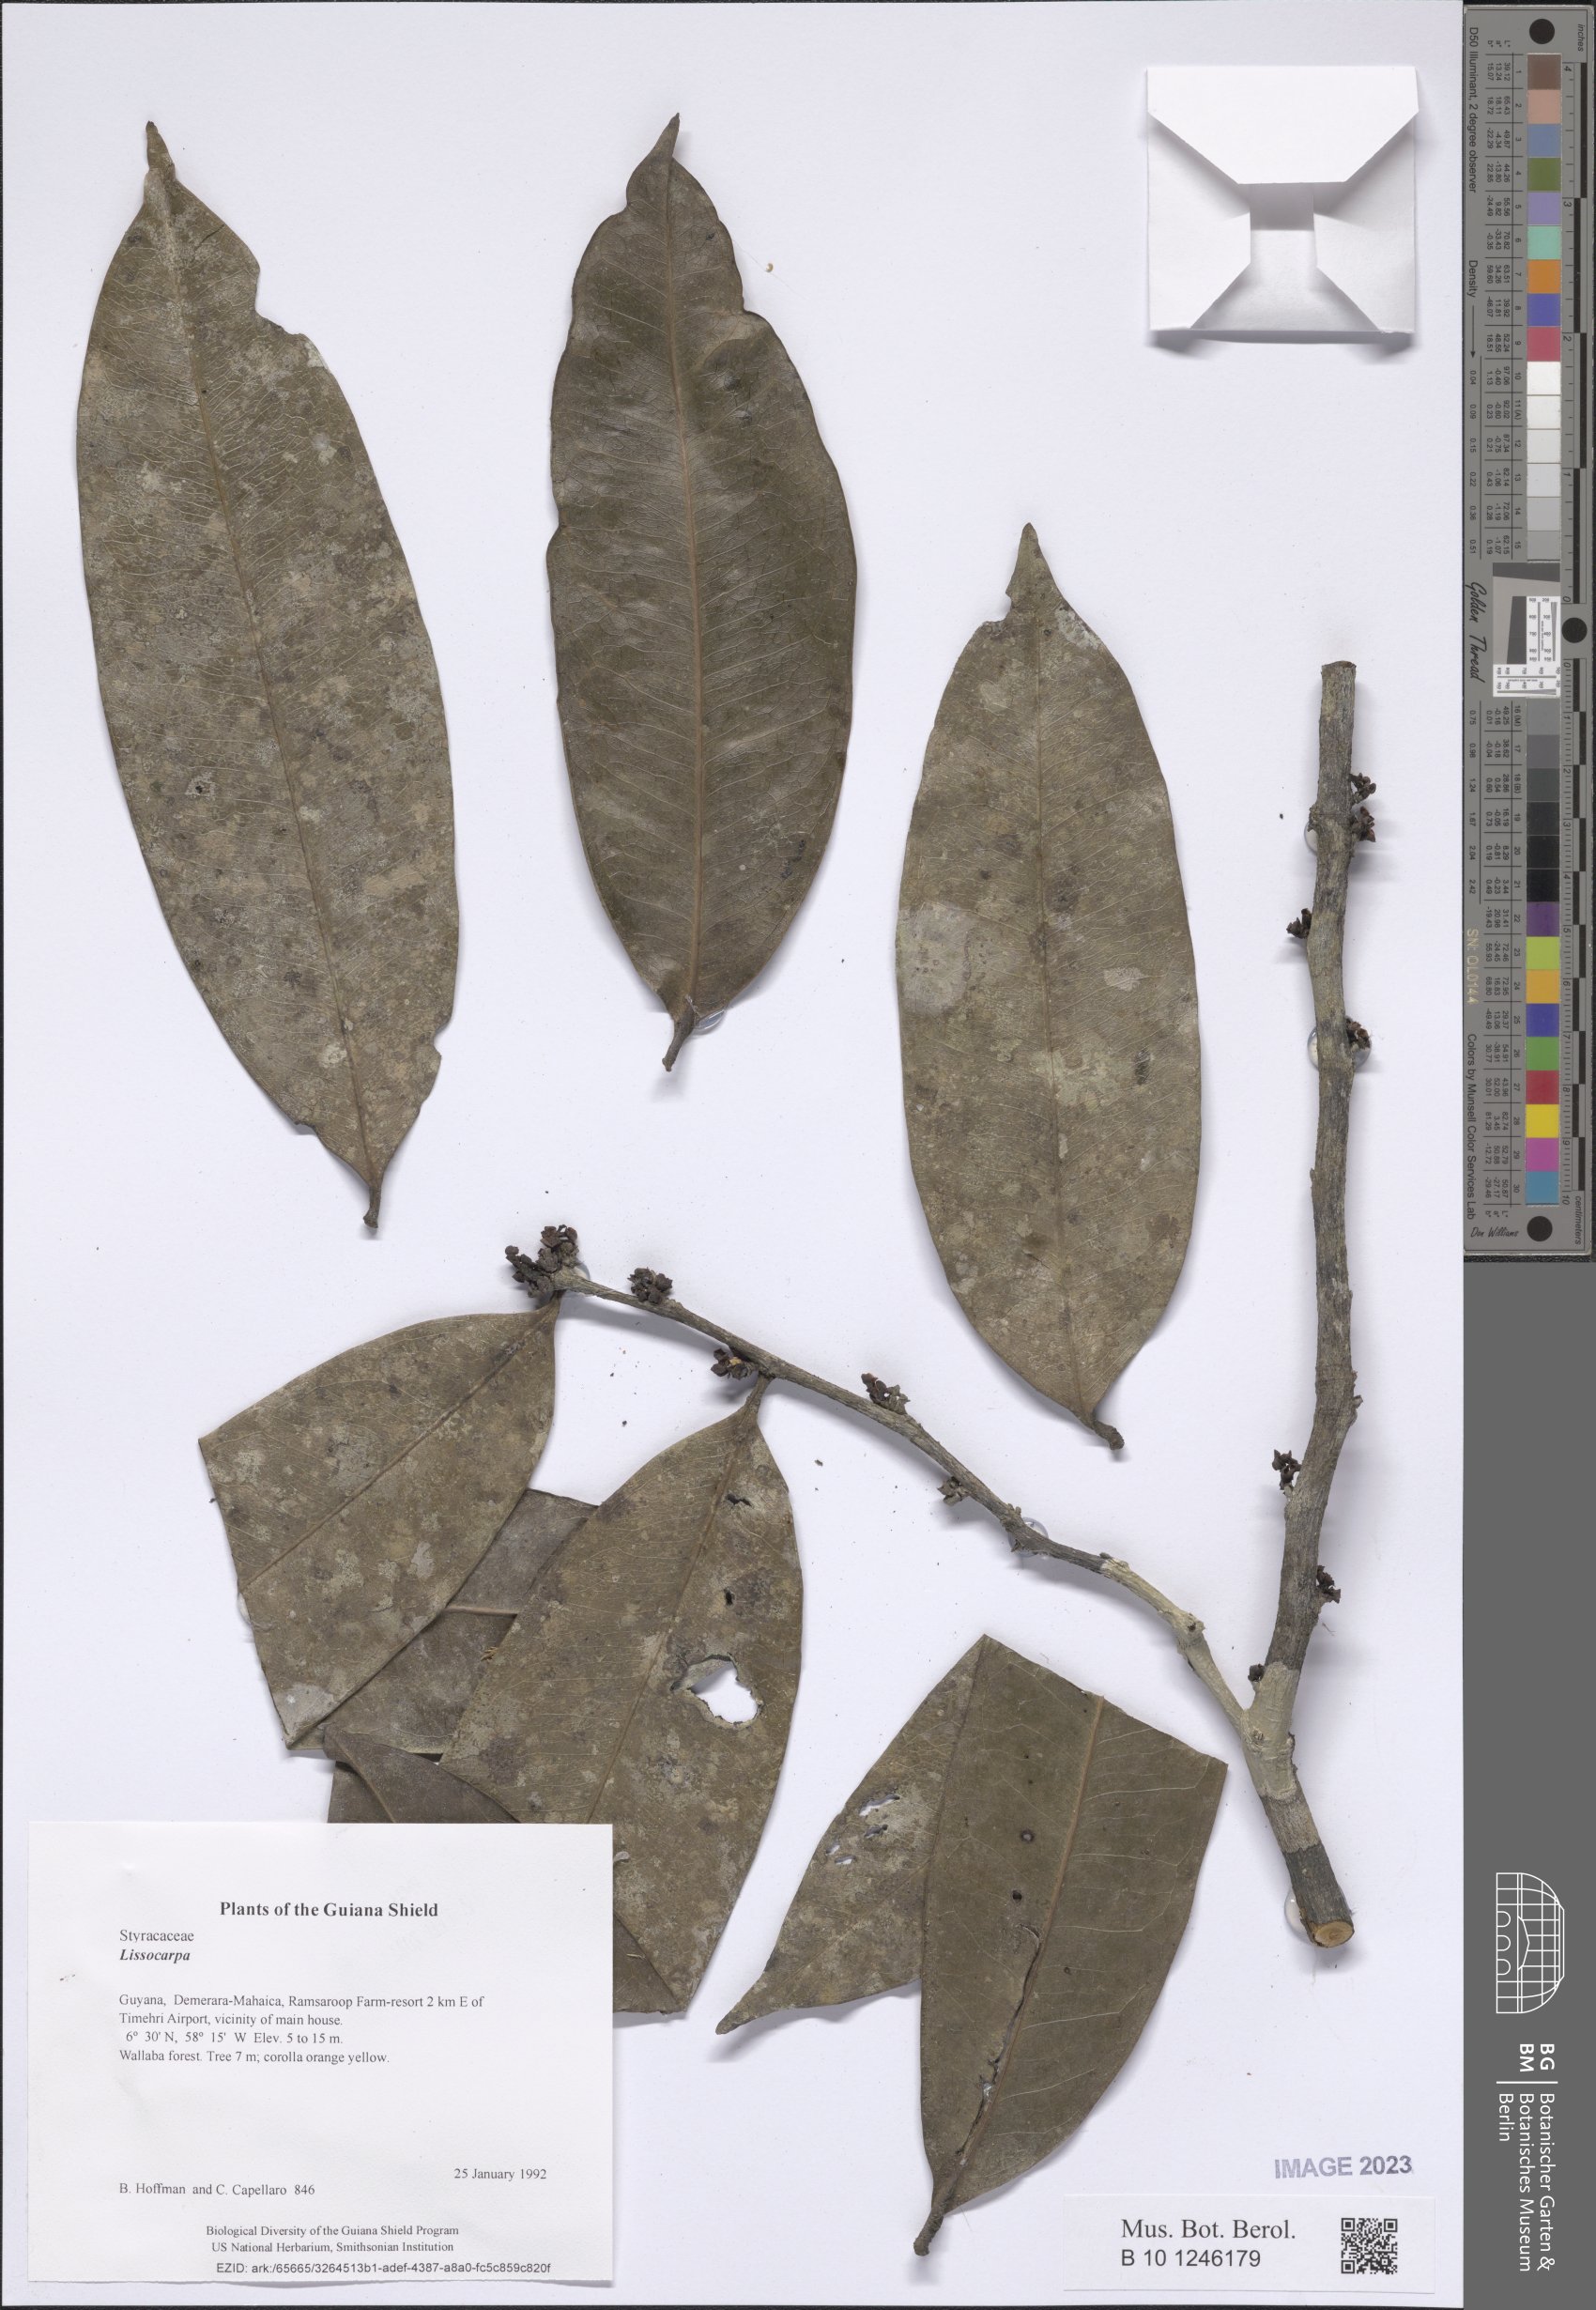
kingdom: Plantae
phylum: Tracheophyta
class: Magnoliopsida
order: Ericales
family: Ebenaceae
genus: Lissocarpa
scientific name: Lissocarpa
